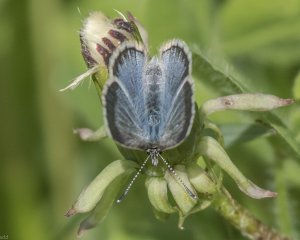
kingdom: Animalia
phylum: Arthropoda
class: Insecta
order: Lepidoptera
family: Lycaenidae
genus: Glaucopsyche
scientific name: Glaucopsyche lygdamus
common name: Silvery Blue
